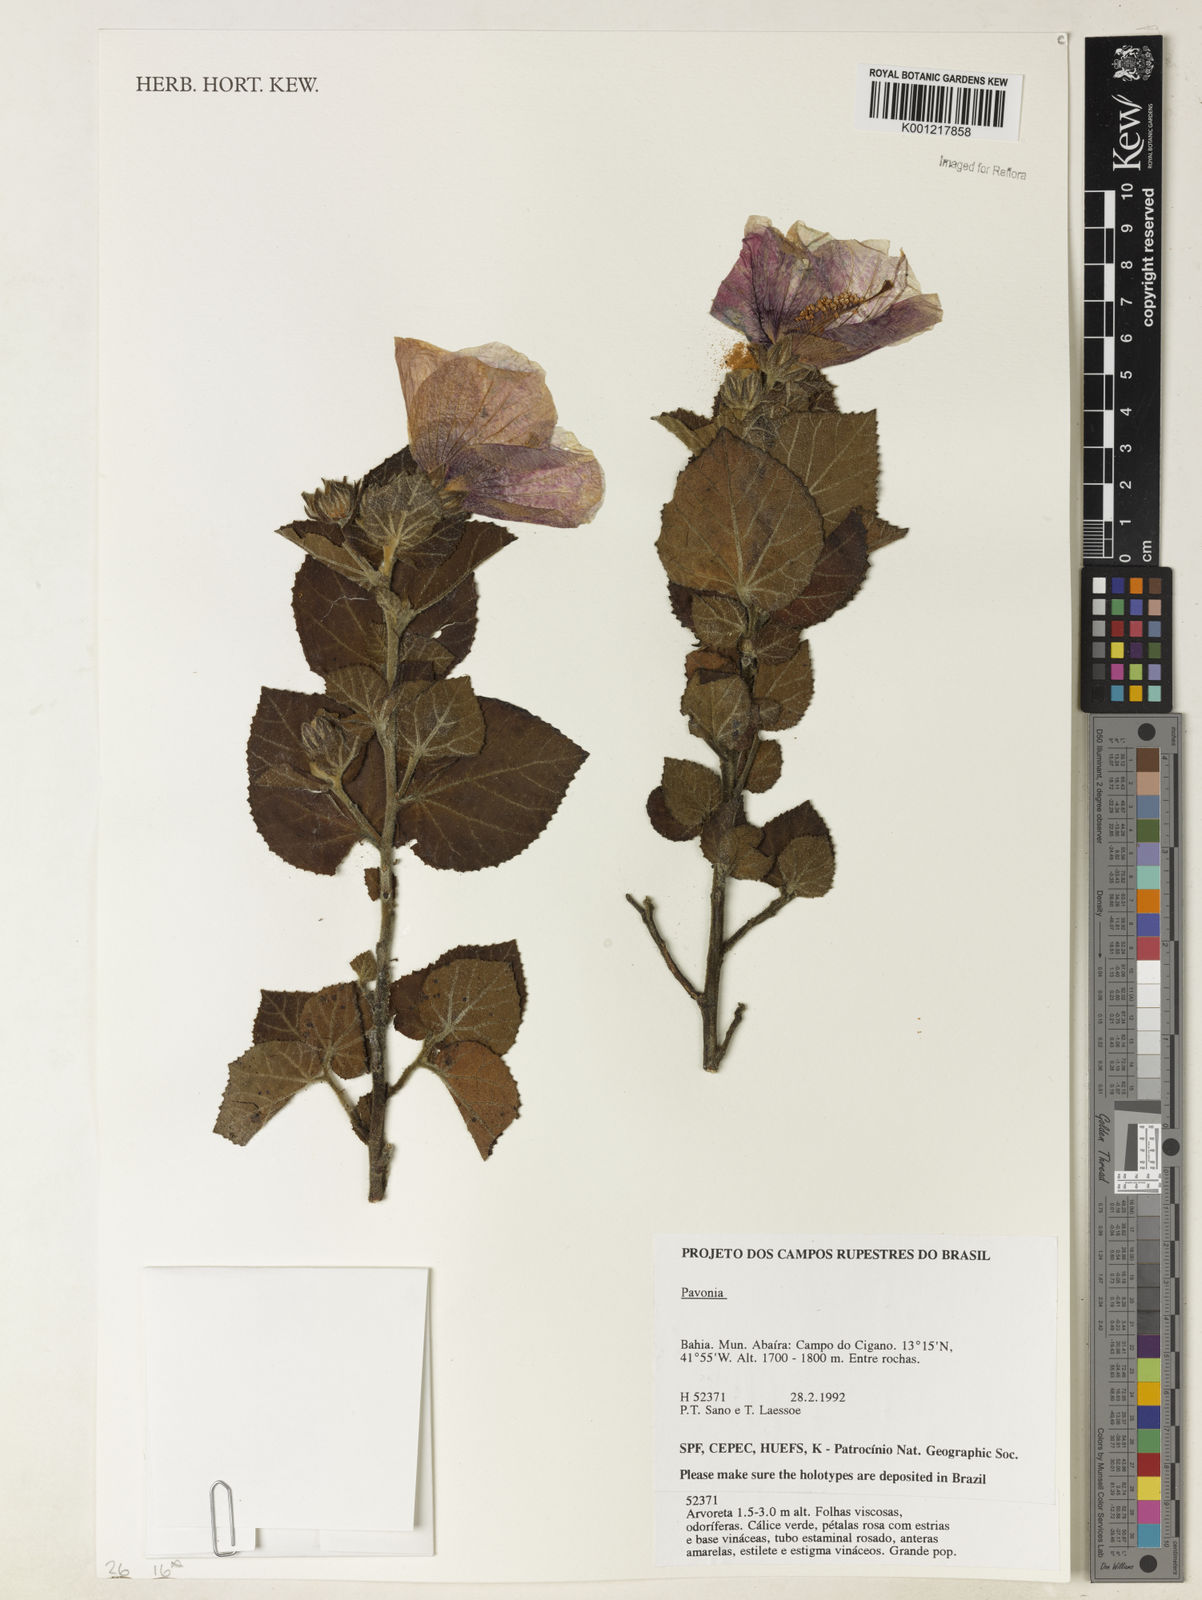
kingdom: Plantae
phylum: Tracheophyta
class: Magnoliopsida
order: Malvales
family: Malvaceae
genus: Pavonia
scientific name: Pavonia
